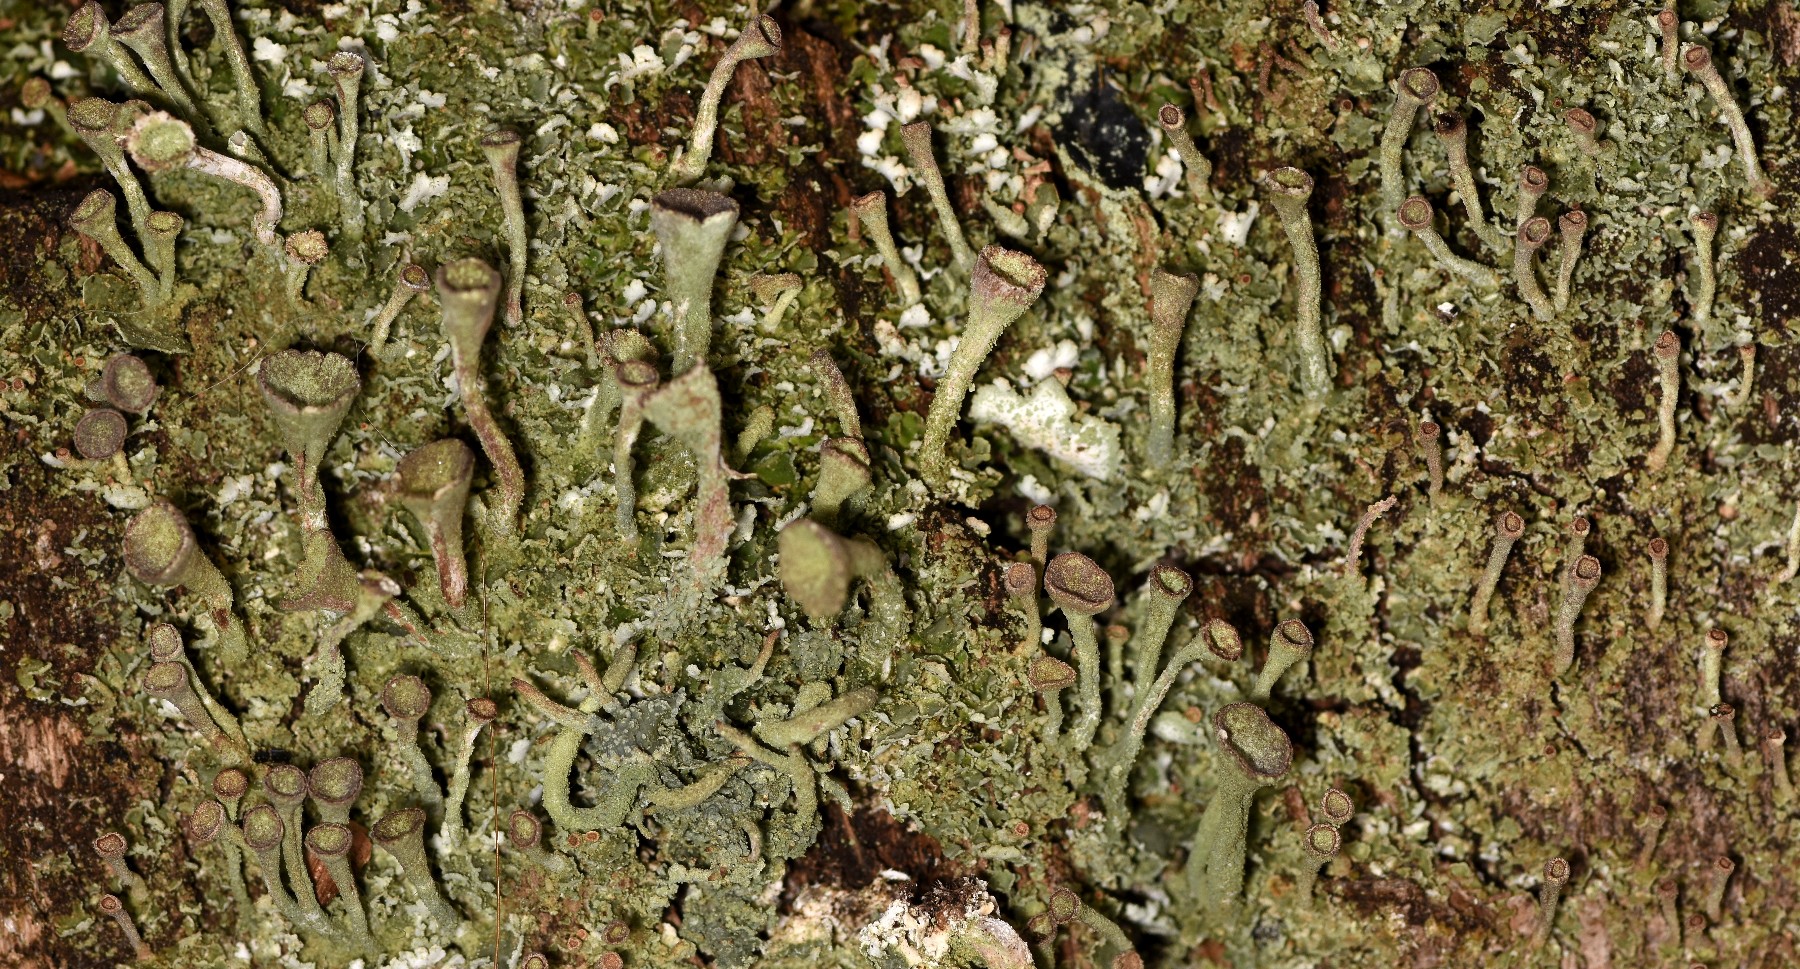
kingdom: Fungi
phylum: Ascomycota
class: Lecanoromycetes
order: Lecanorales
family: Cladoniaceae
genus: Cladonia
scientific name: Cladonia
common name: brungrøn bægerlav
